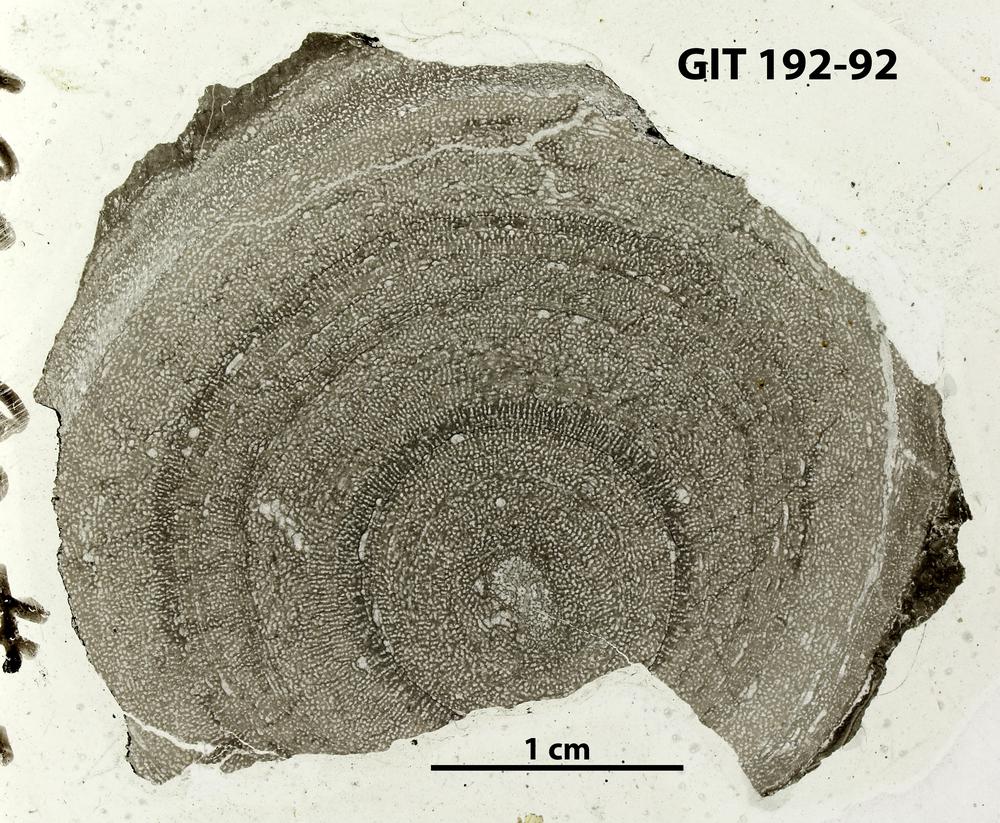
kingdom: Animalia
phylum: Porifera
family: Syringostromellidae
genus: Syringostromella
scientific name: Syringostromella
